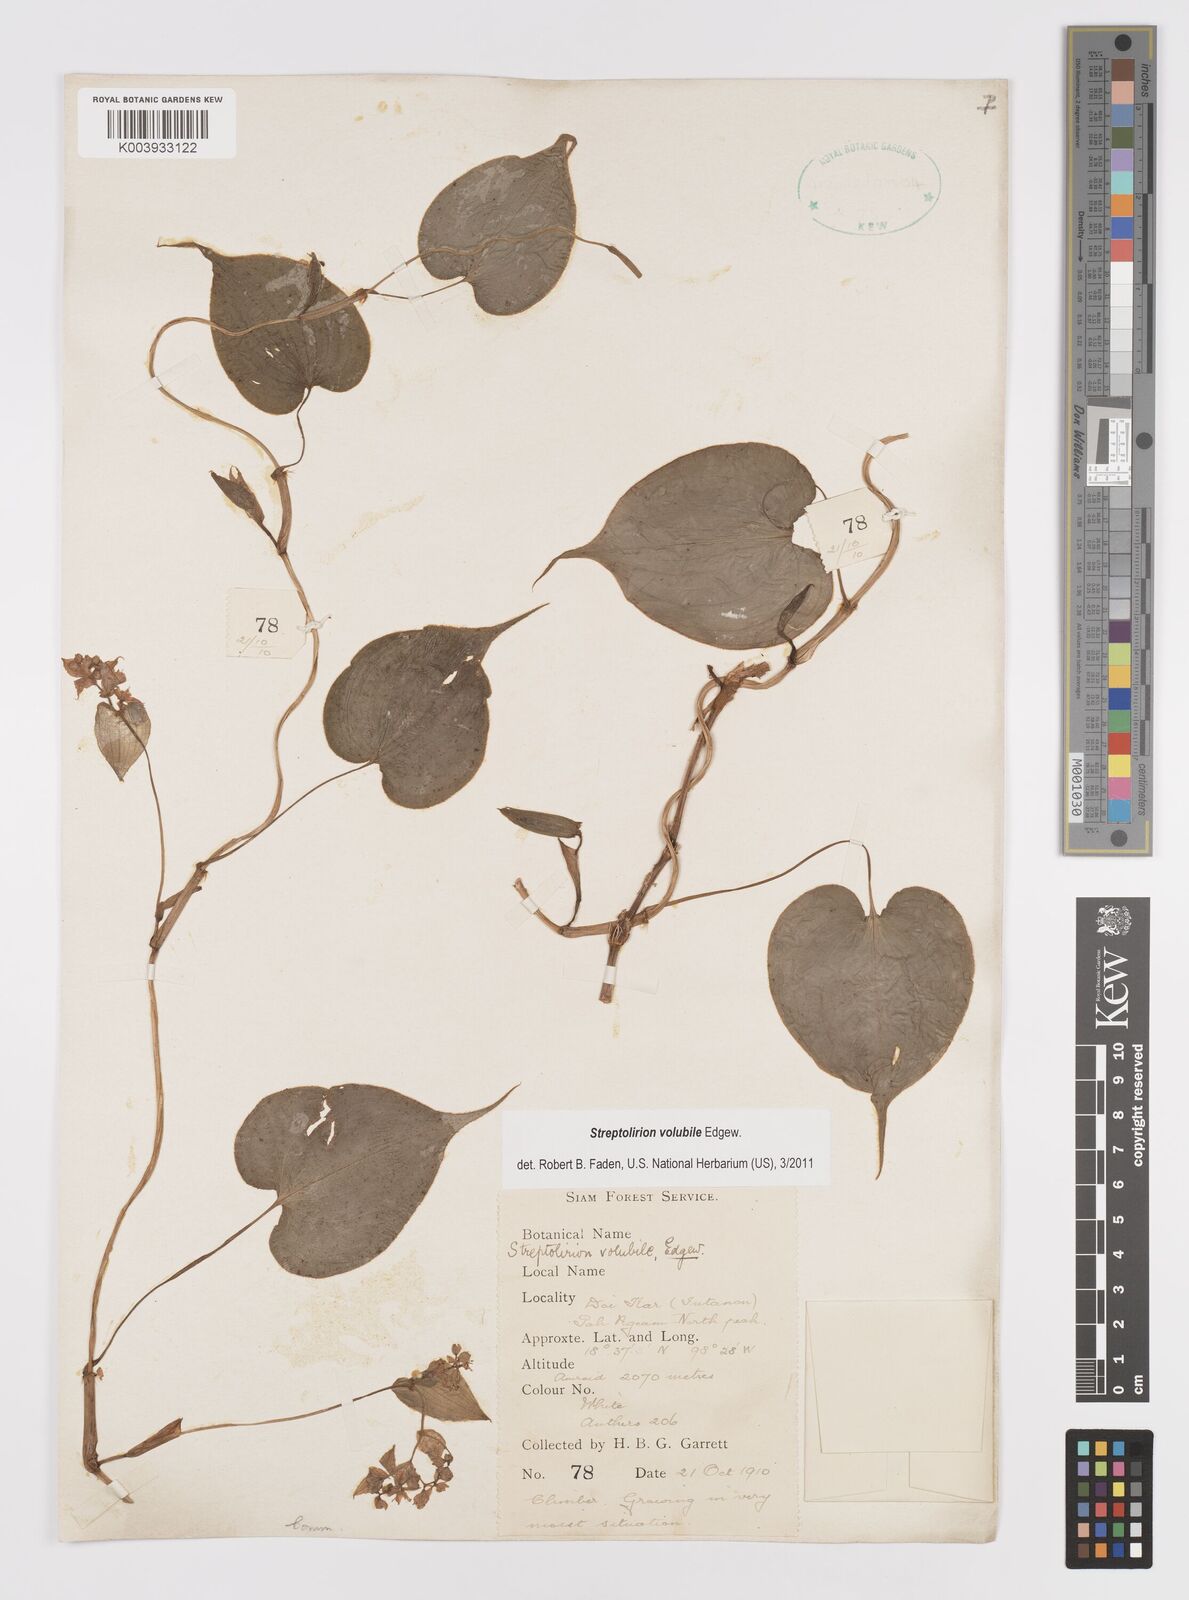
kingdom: Plantae
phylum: Tracheophyta
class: Liliopsida
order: Commelinales
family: Commelinaceae
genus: Streptolirion
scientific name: Streptolirion volubile
